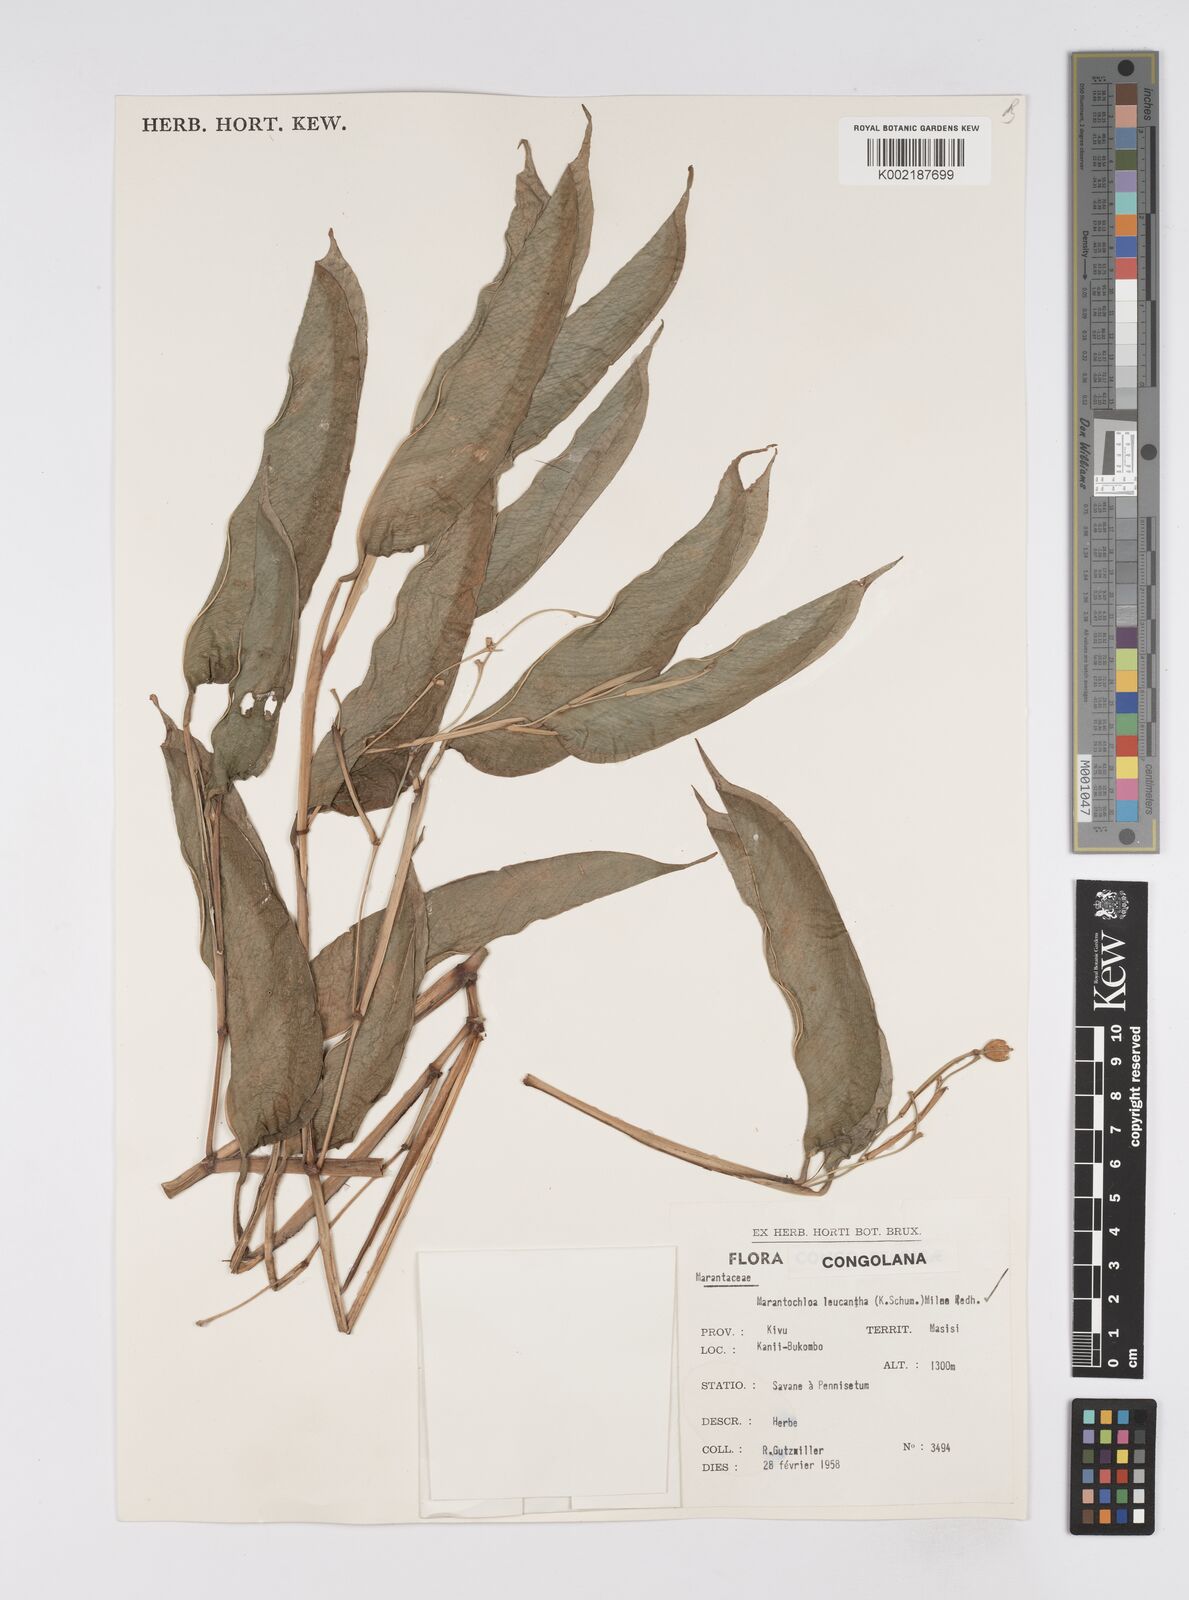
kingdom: Plantae
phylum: Tracheophyta
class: Liliopsida
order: Zingiberales
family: Marantaceae
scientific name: Marantaceae
